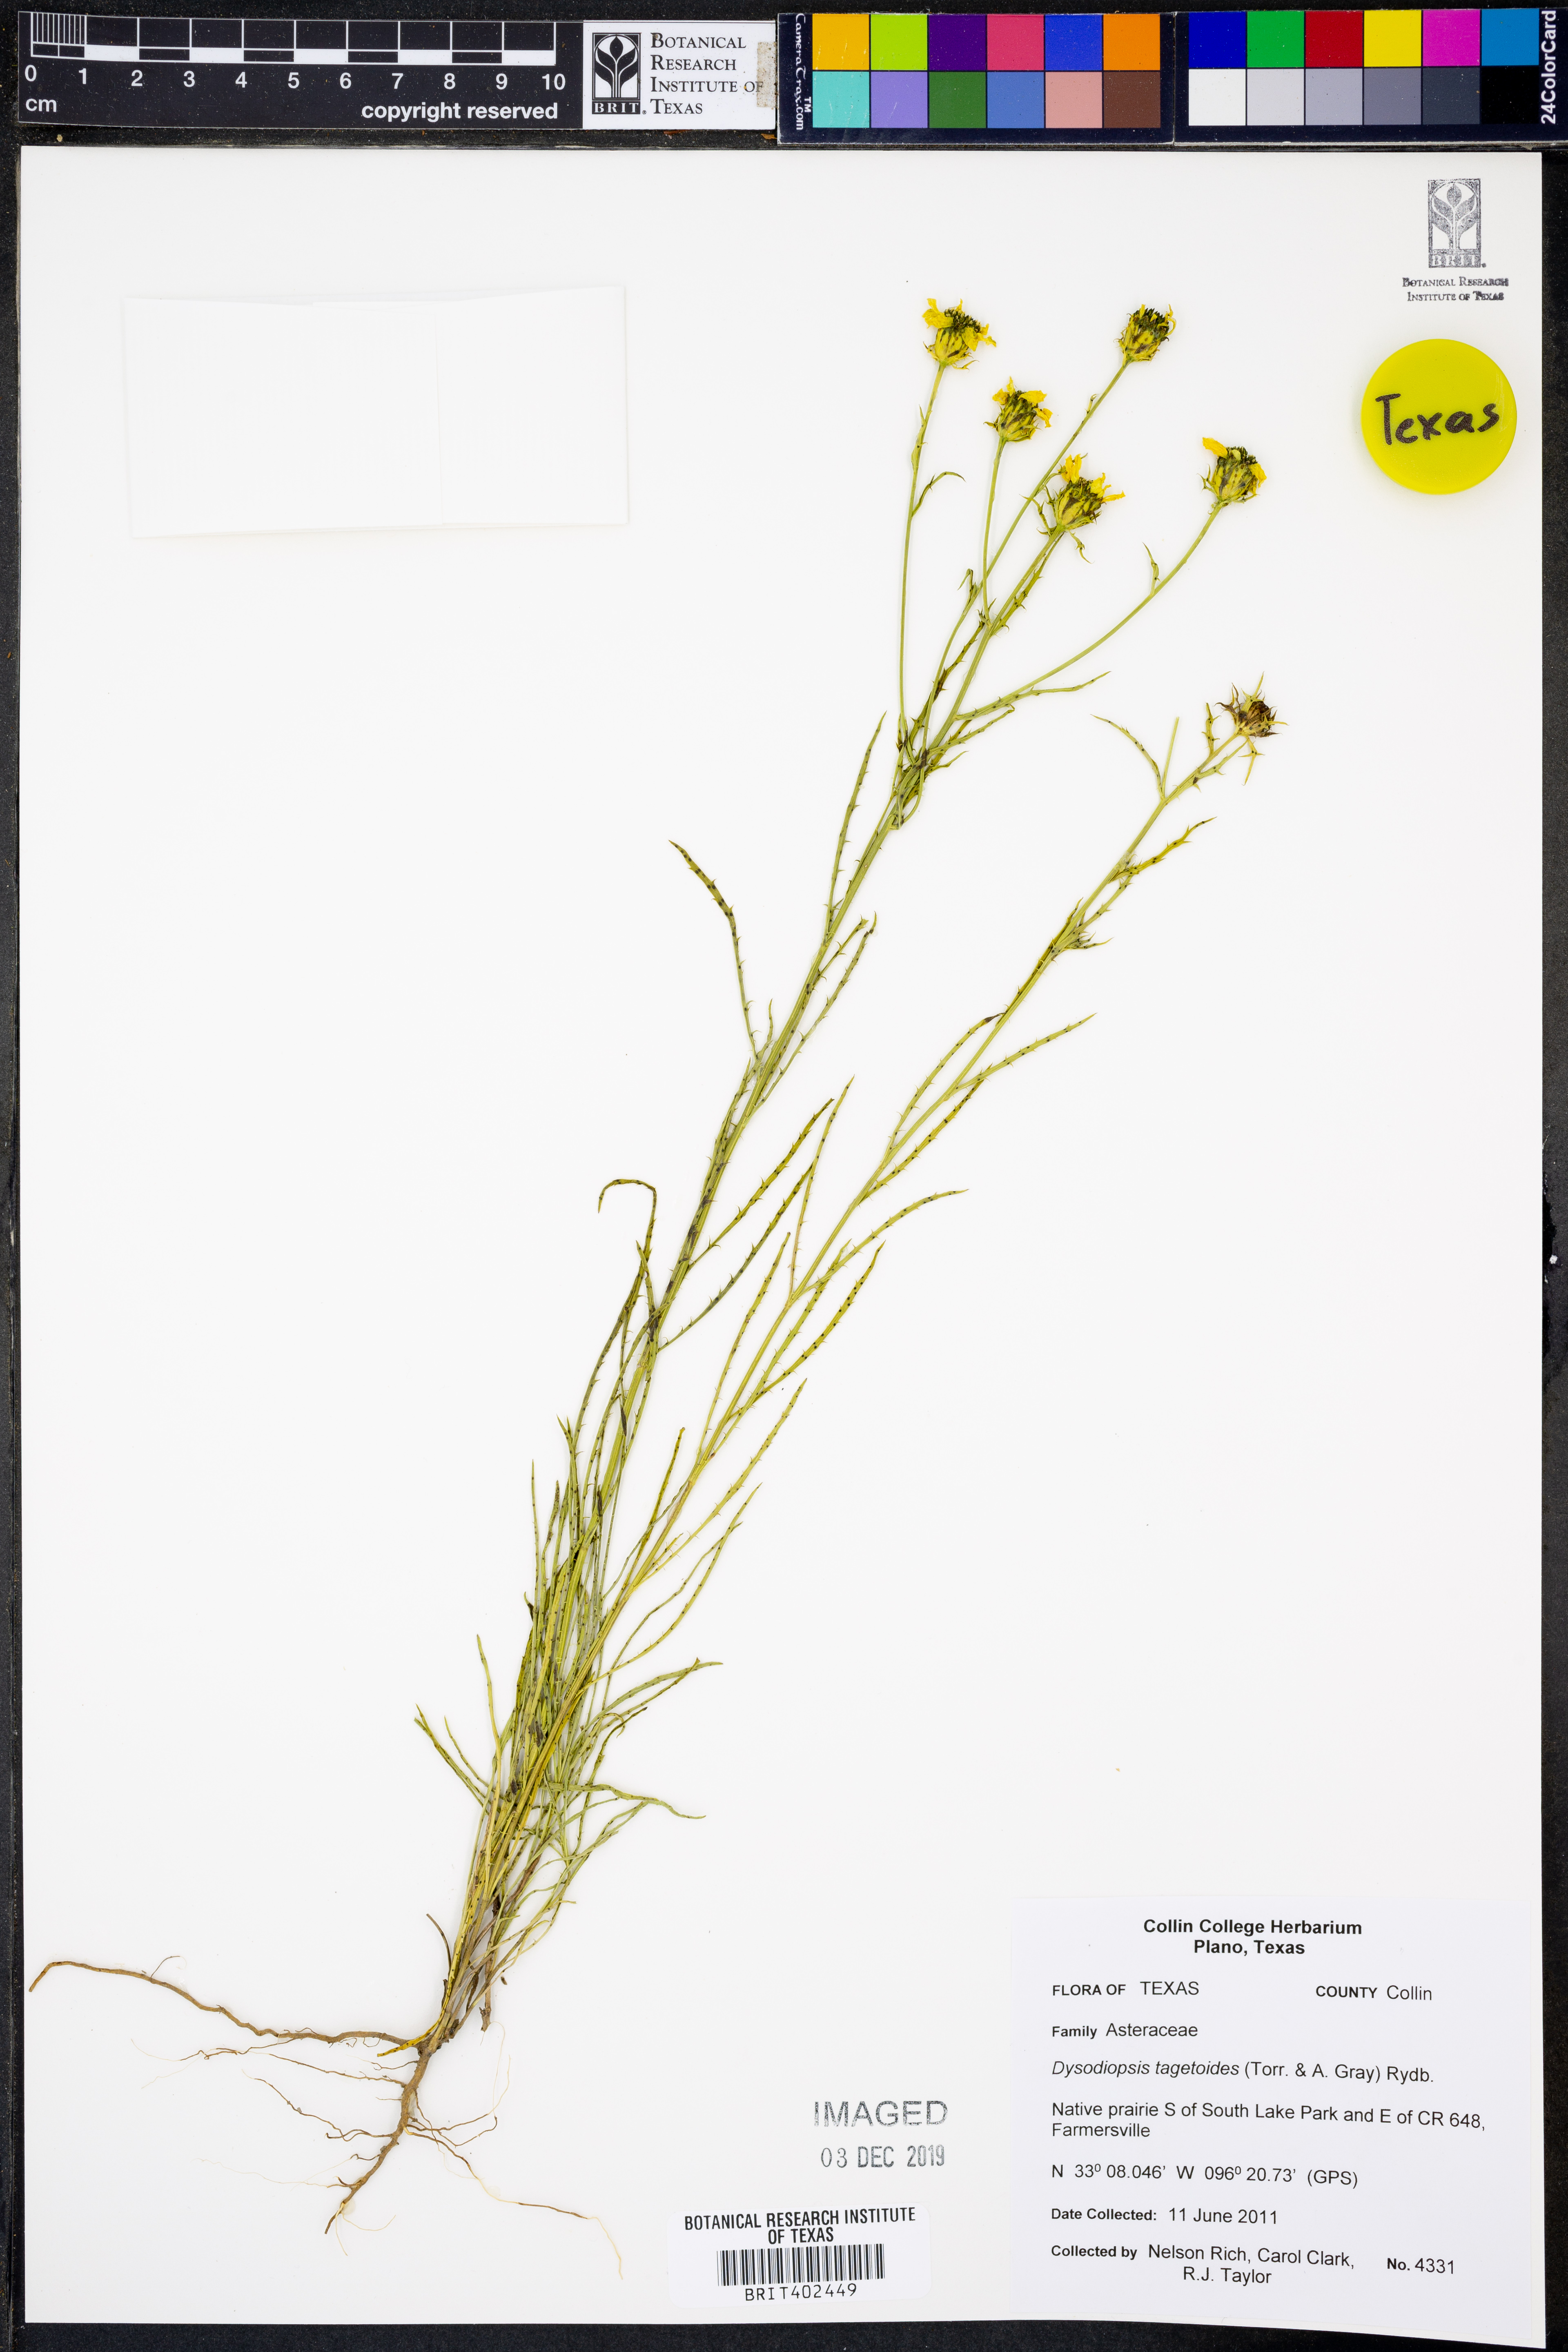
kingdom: Plantae
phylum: Tracheophyta
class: Magnoliopsida
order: Asterales
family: Asteraceae
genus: Dysodiopsis
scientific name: Dysodiopsis tagetoides
